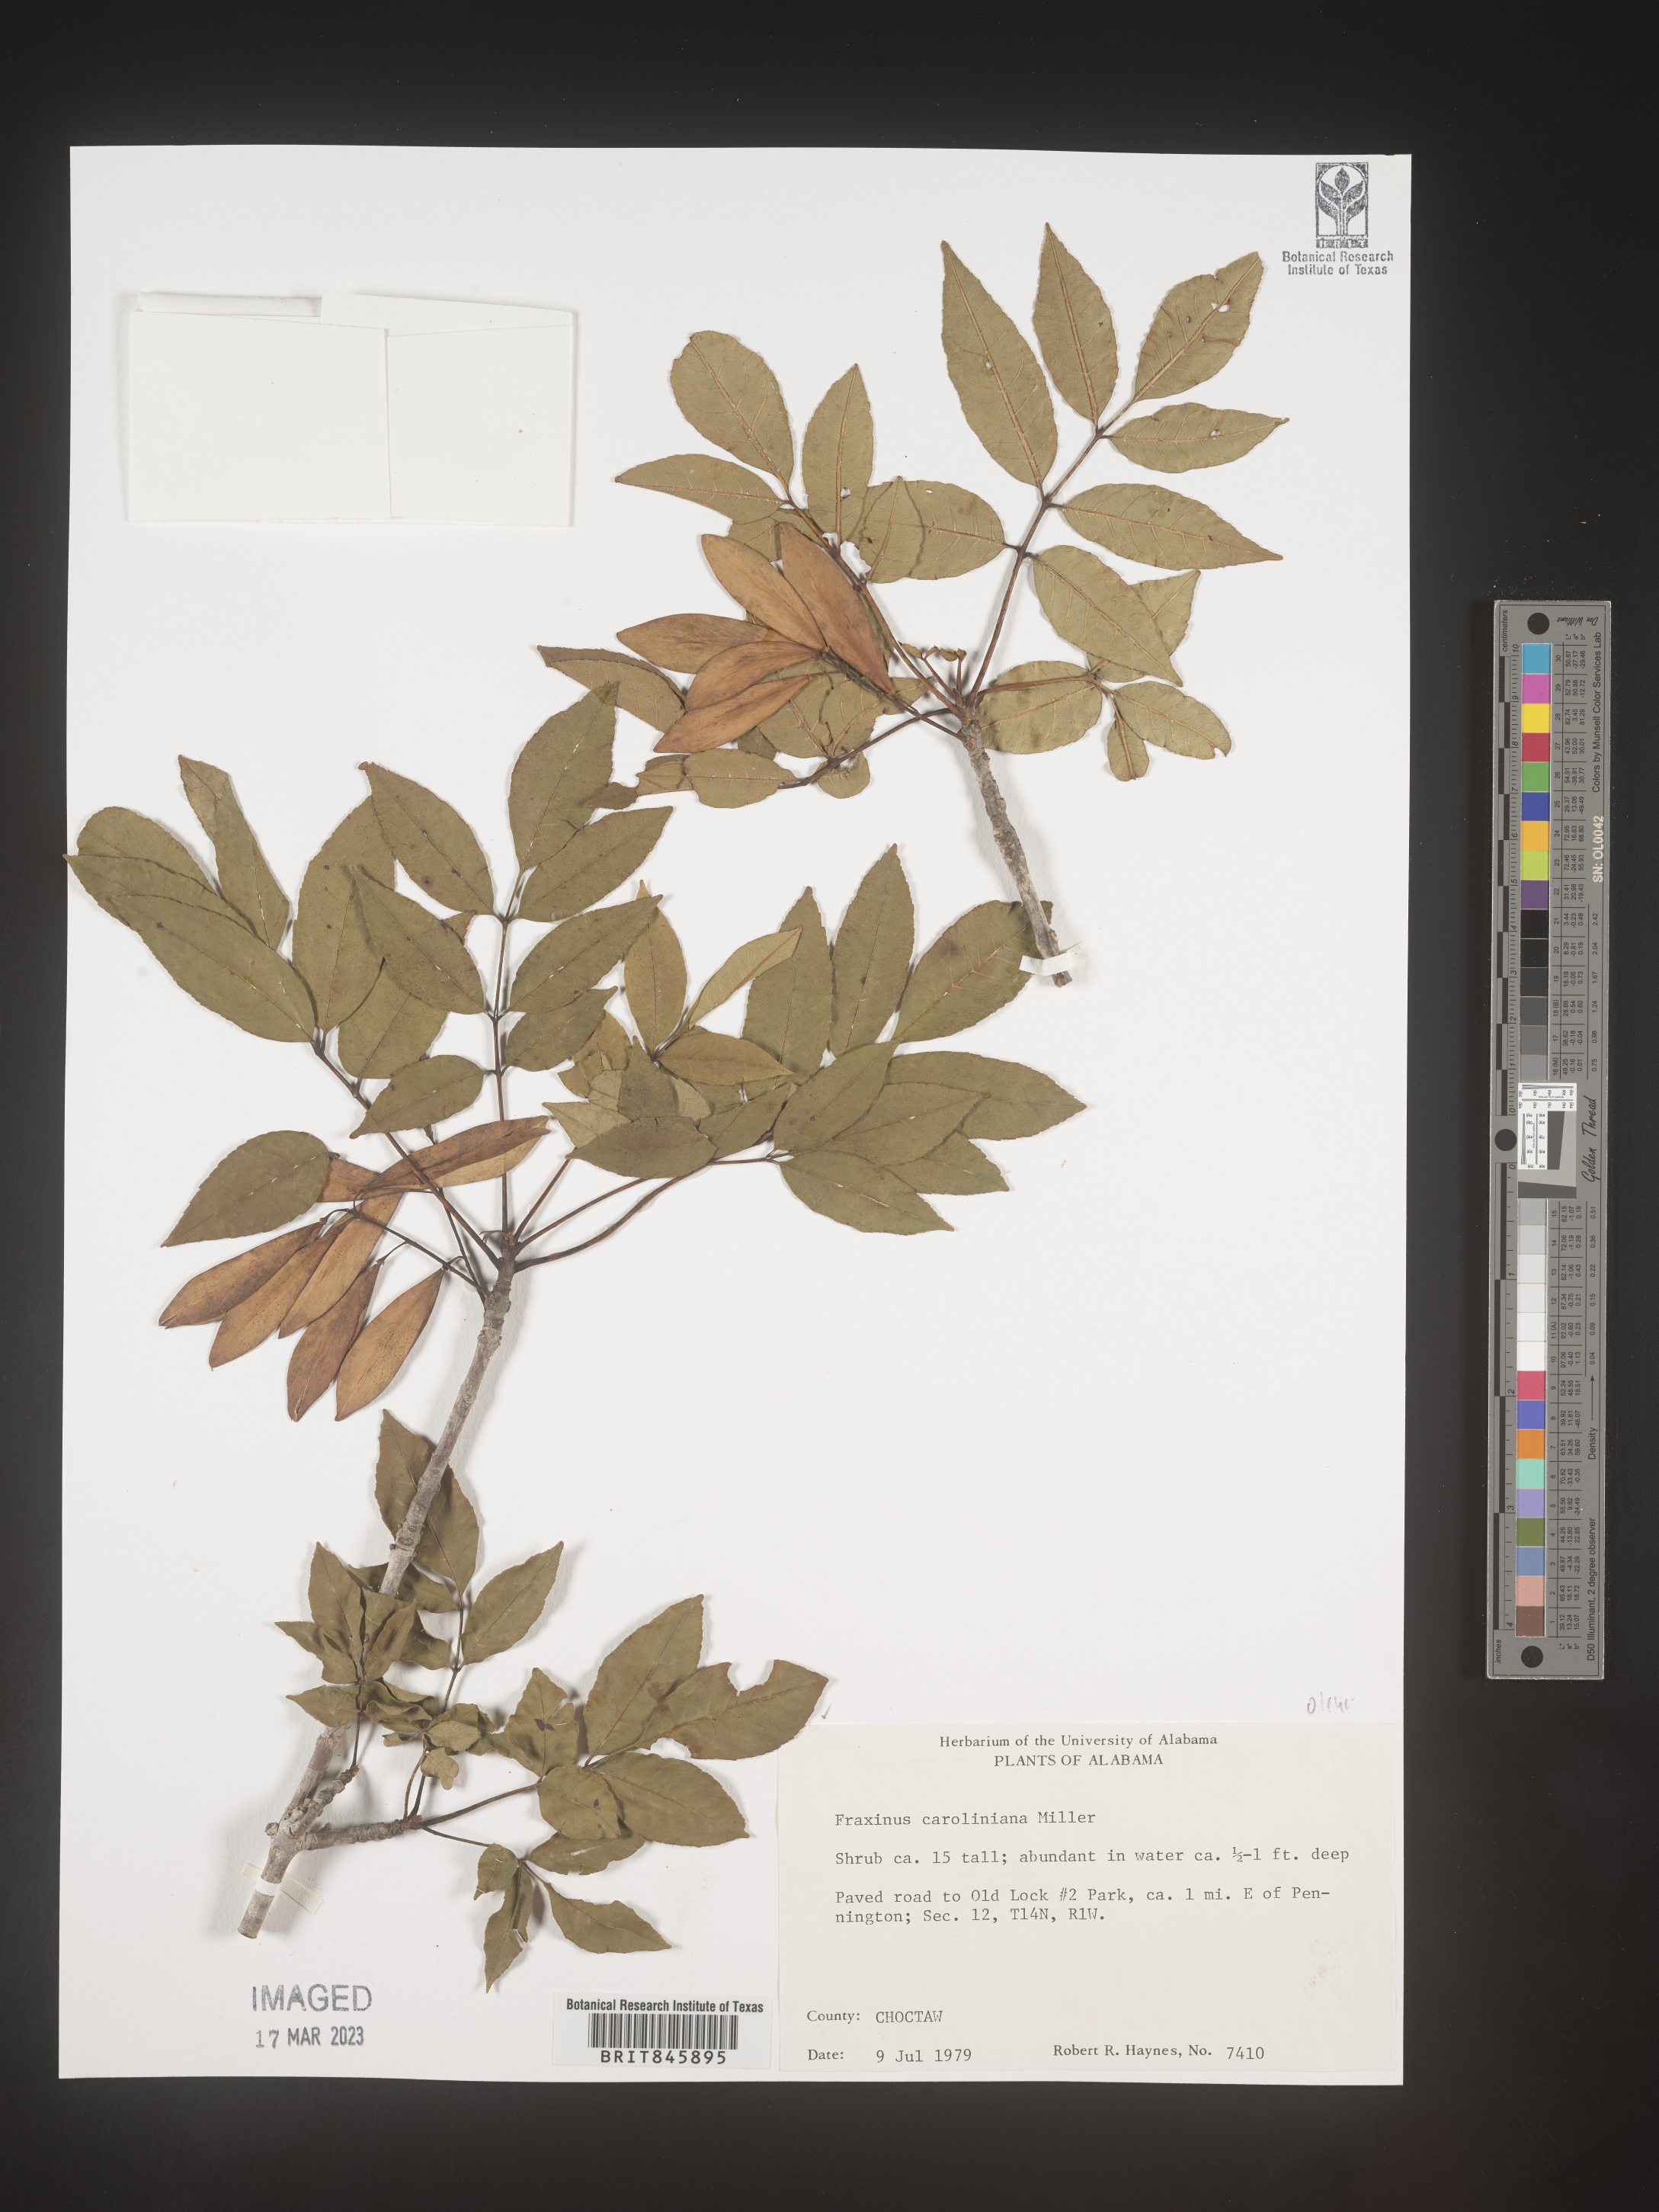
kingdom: Plantae
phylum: Tracheophyta
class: Magnoliopsida
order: Lamiales
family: Oleaceae
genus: Fraxinus
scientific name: Fraxinus caroliniana
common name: Carolina ash
